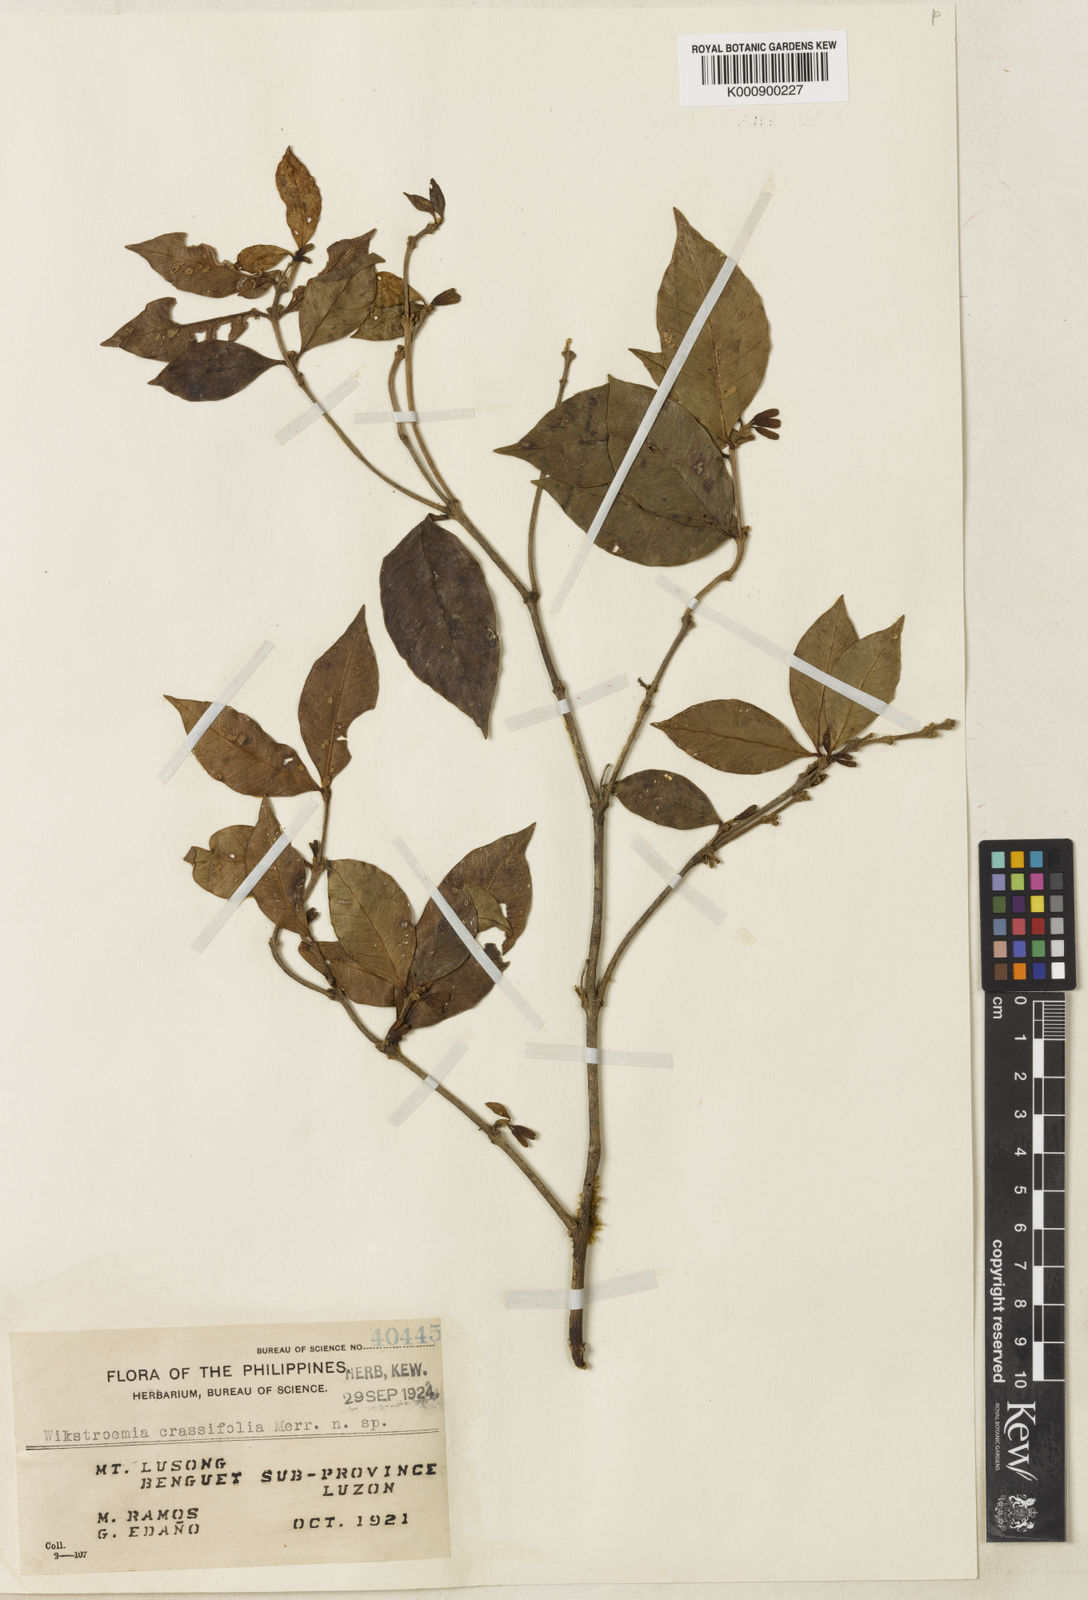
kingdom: Plantae
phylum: Tracheophyta
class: Magnoliopsida
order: Malvales
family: Thymelaeaceae
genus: Wikstroemia
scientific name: Wikstroemia brachyantha
